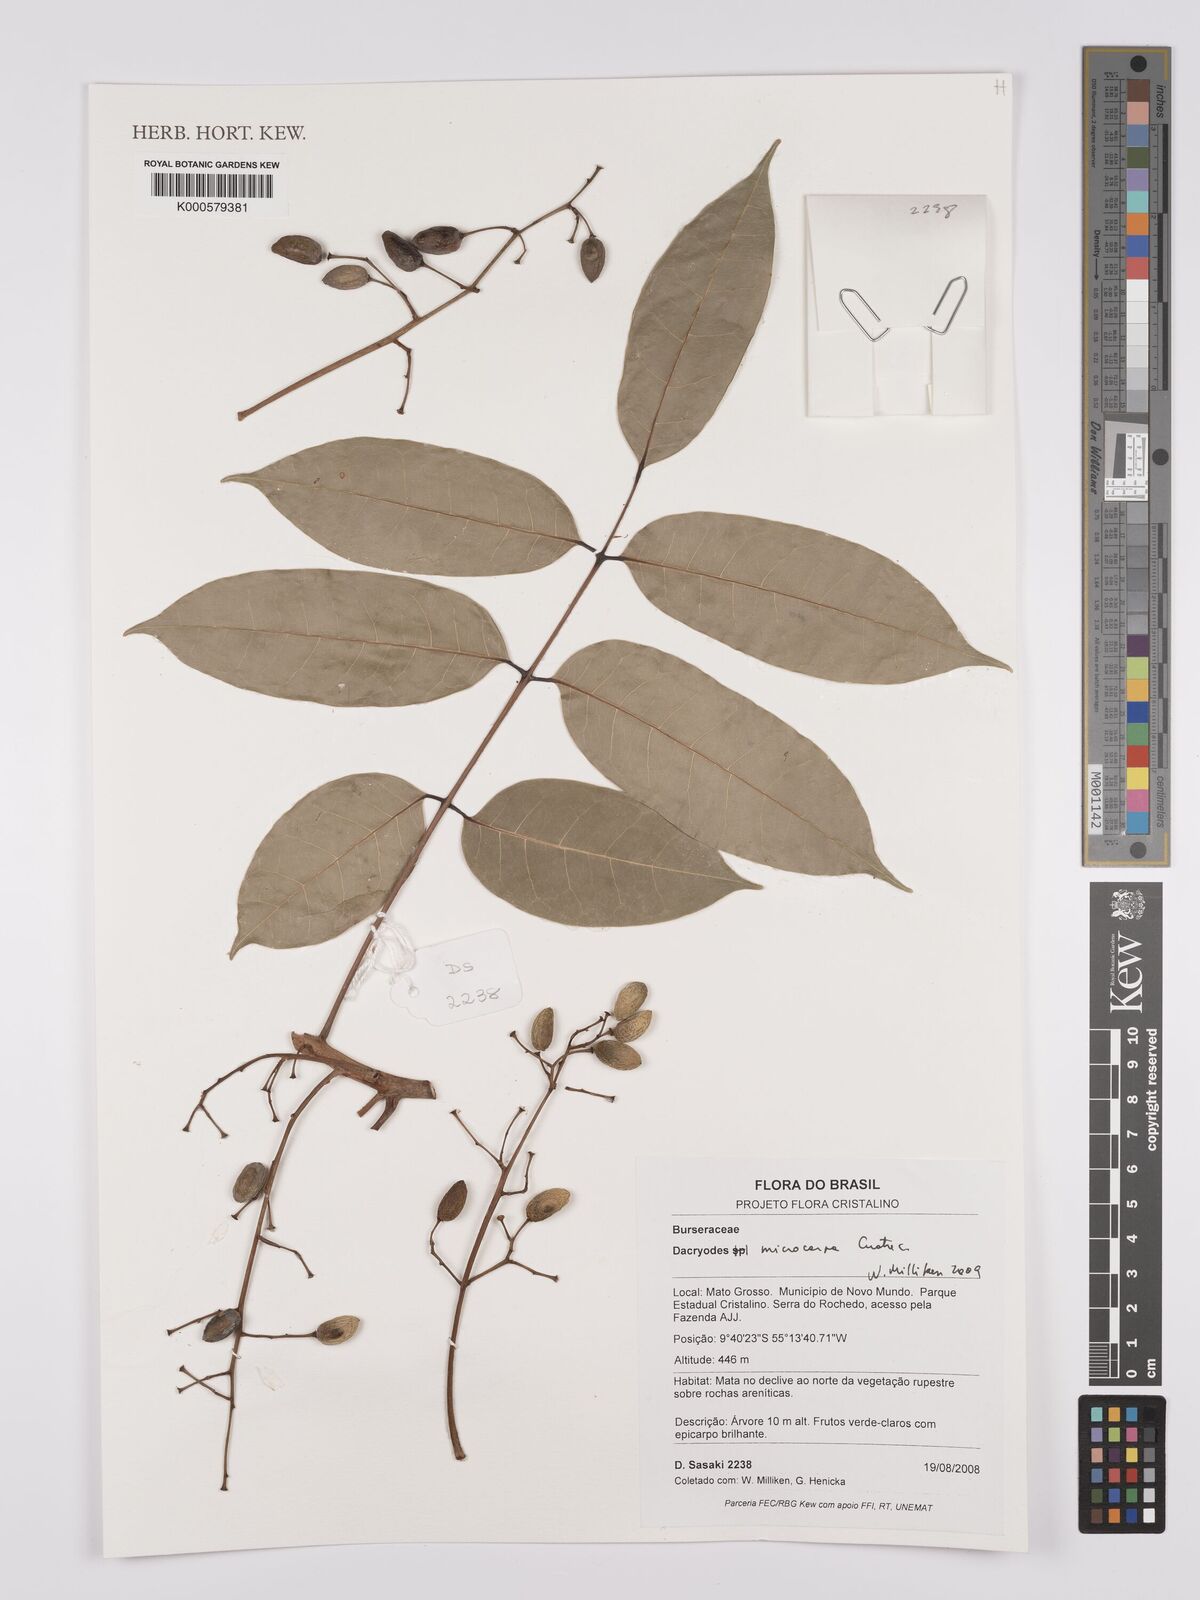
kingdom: Plantae
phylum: Tracheophyta
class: Magnoliopsida
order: Sapindales
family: Burseraceae
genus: Dacryodes
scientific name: Dacryodes microcarpa
